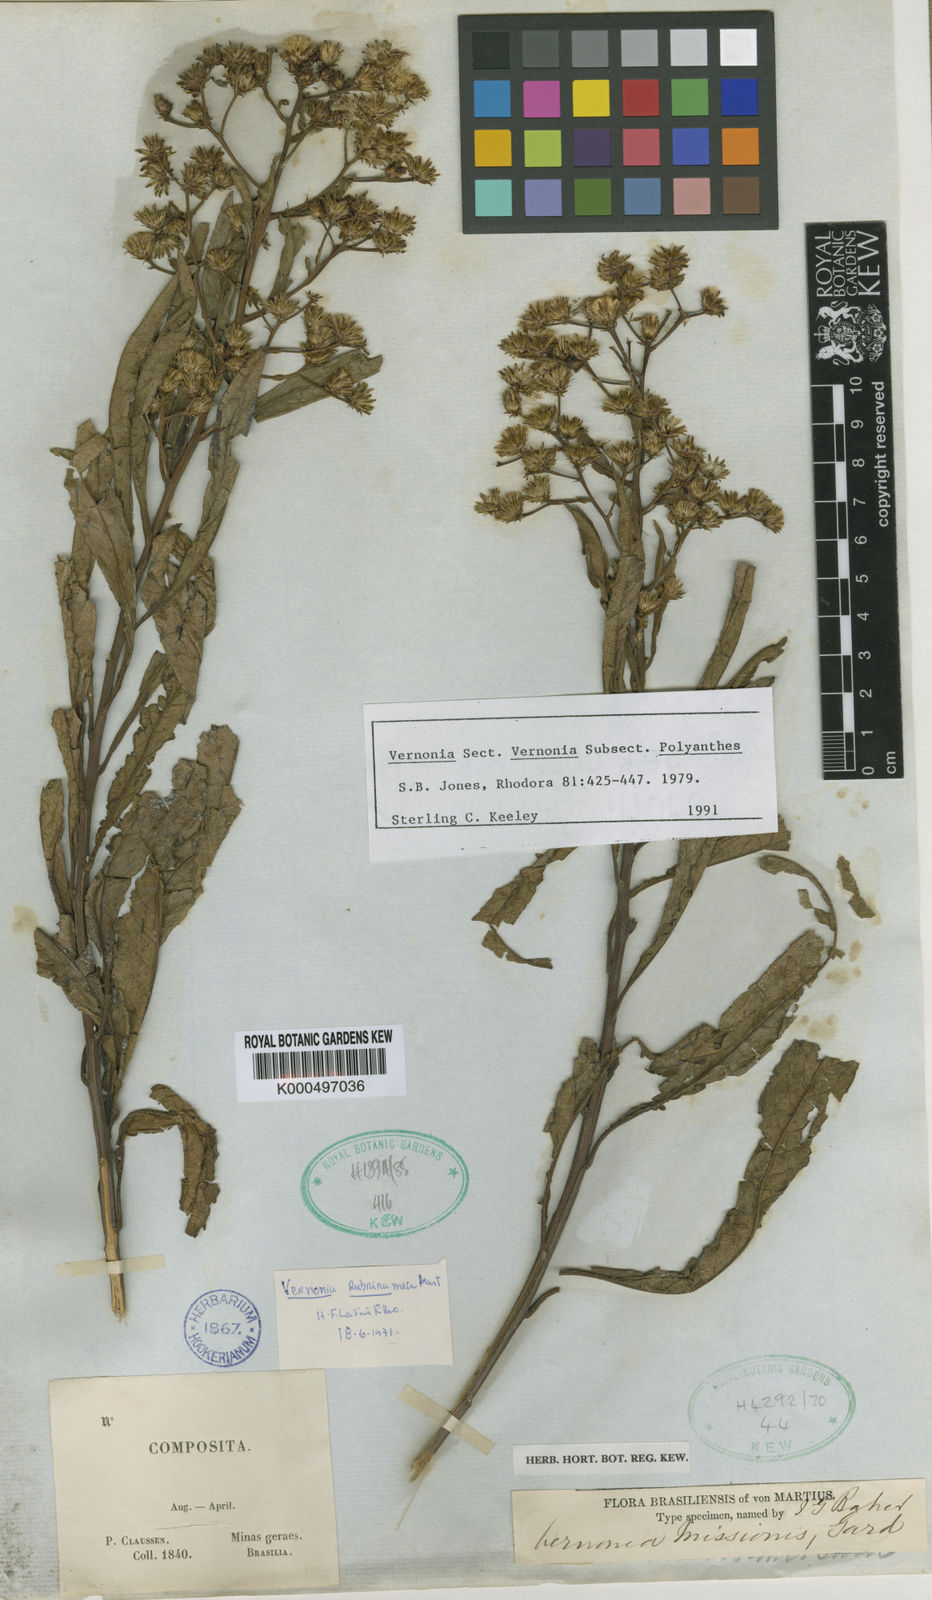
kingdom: Plantae
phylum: Tracheophyta
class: Magnoliopsida
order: Asterales
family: Asteraceae
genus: Vernonanthura
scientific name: Vernonanthura cymosa
